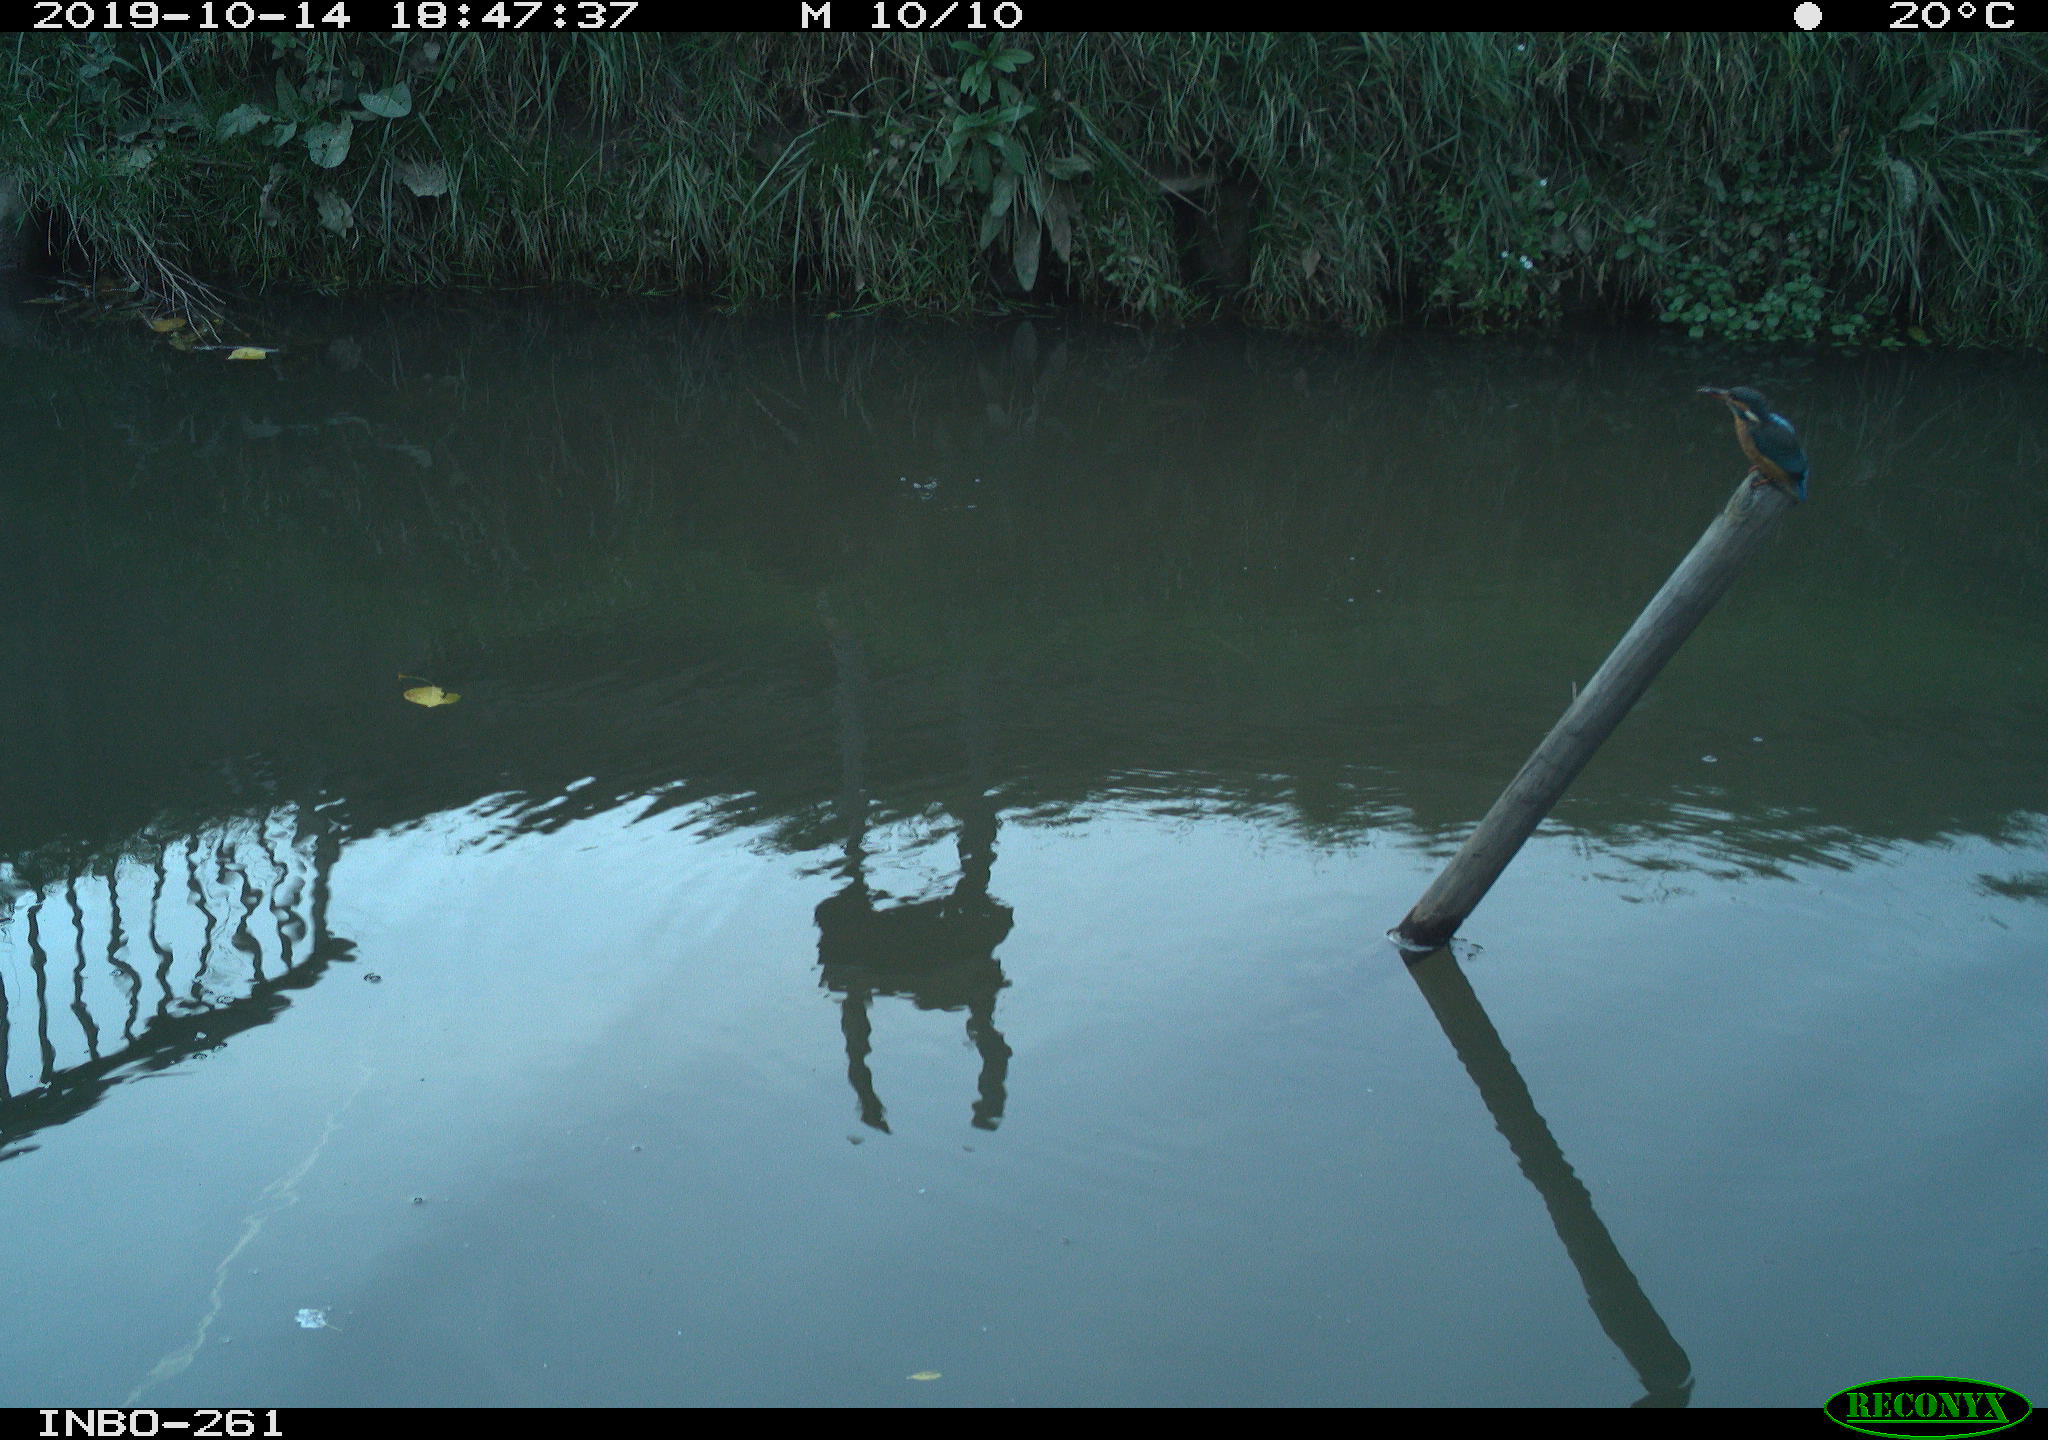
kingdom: Animalia
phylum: Chordata
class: Aves
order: Coraciiformes
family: Alcedinidae
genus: Alcedo
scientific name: Alcedo atthis
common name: Common kingfisher
